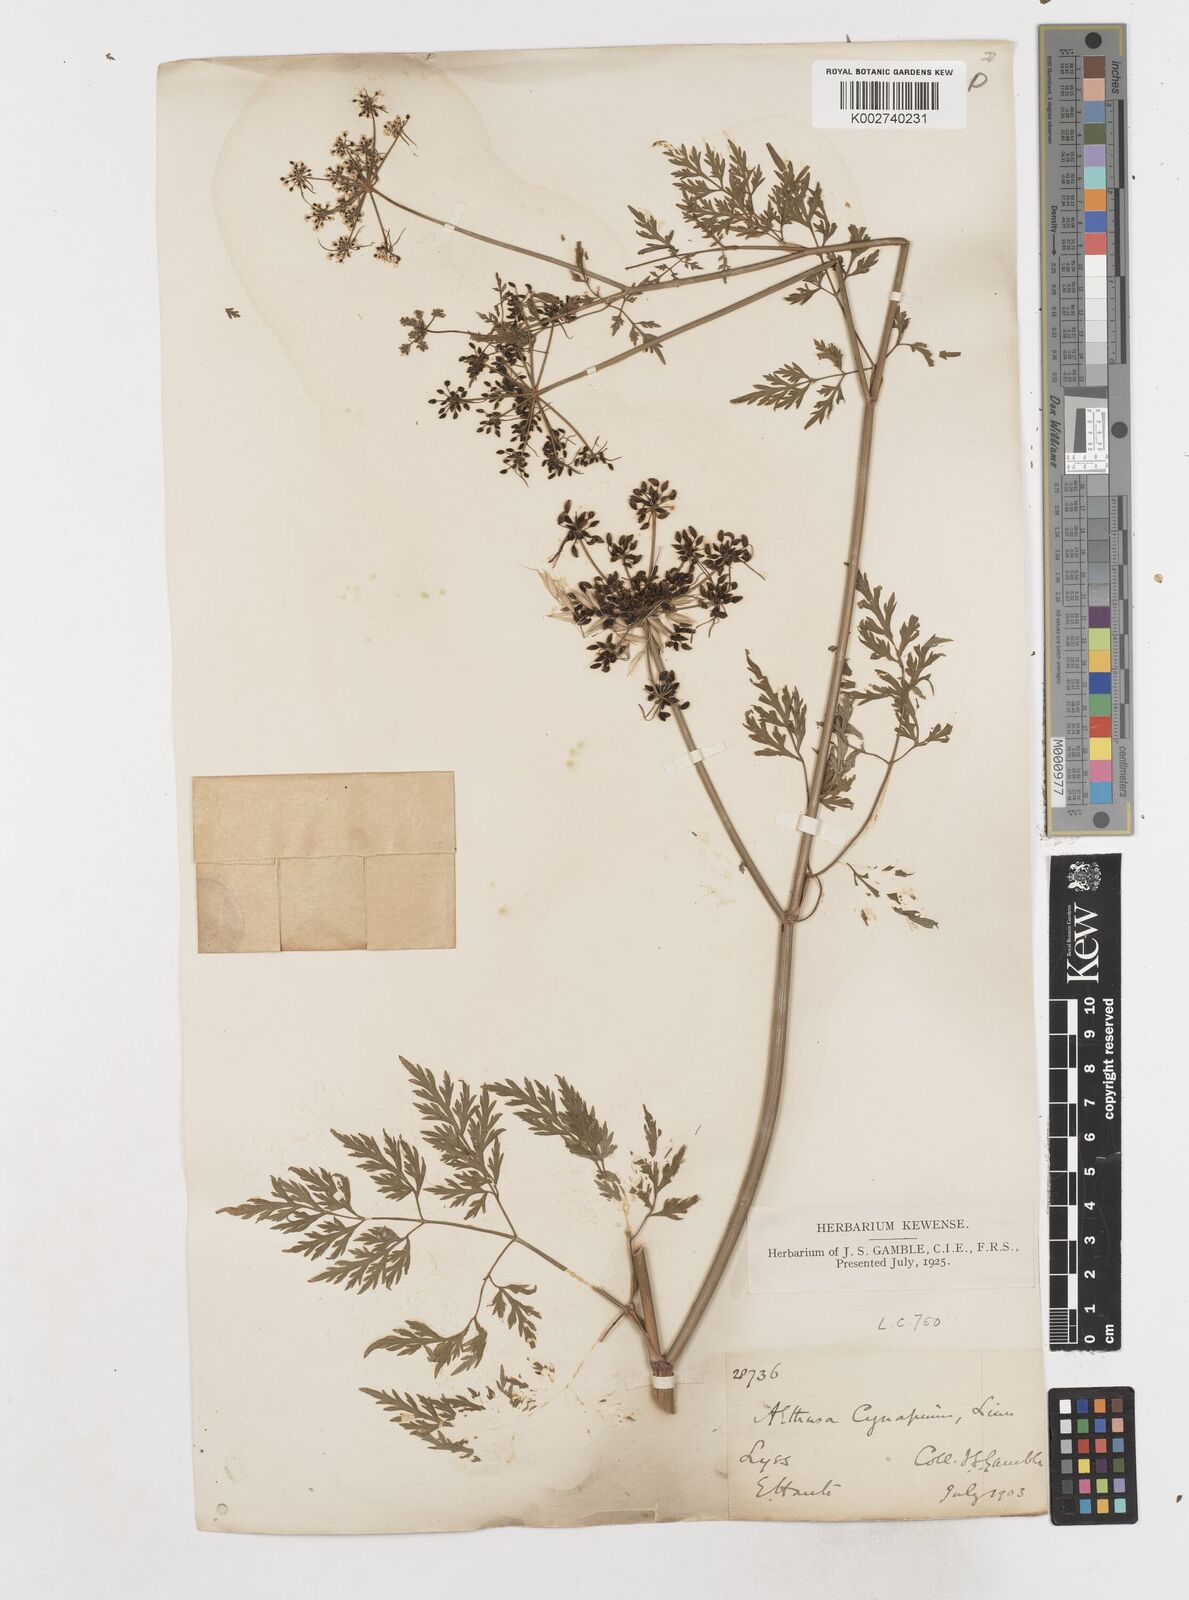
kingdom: Plantae
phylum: Tracheophyta
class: Magnoliopsida
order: Apiales
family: Apiaceae
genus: Aethusa
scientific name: Aethusa cynapium
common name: Fool's parsley
